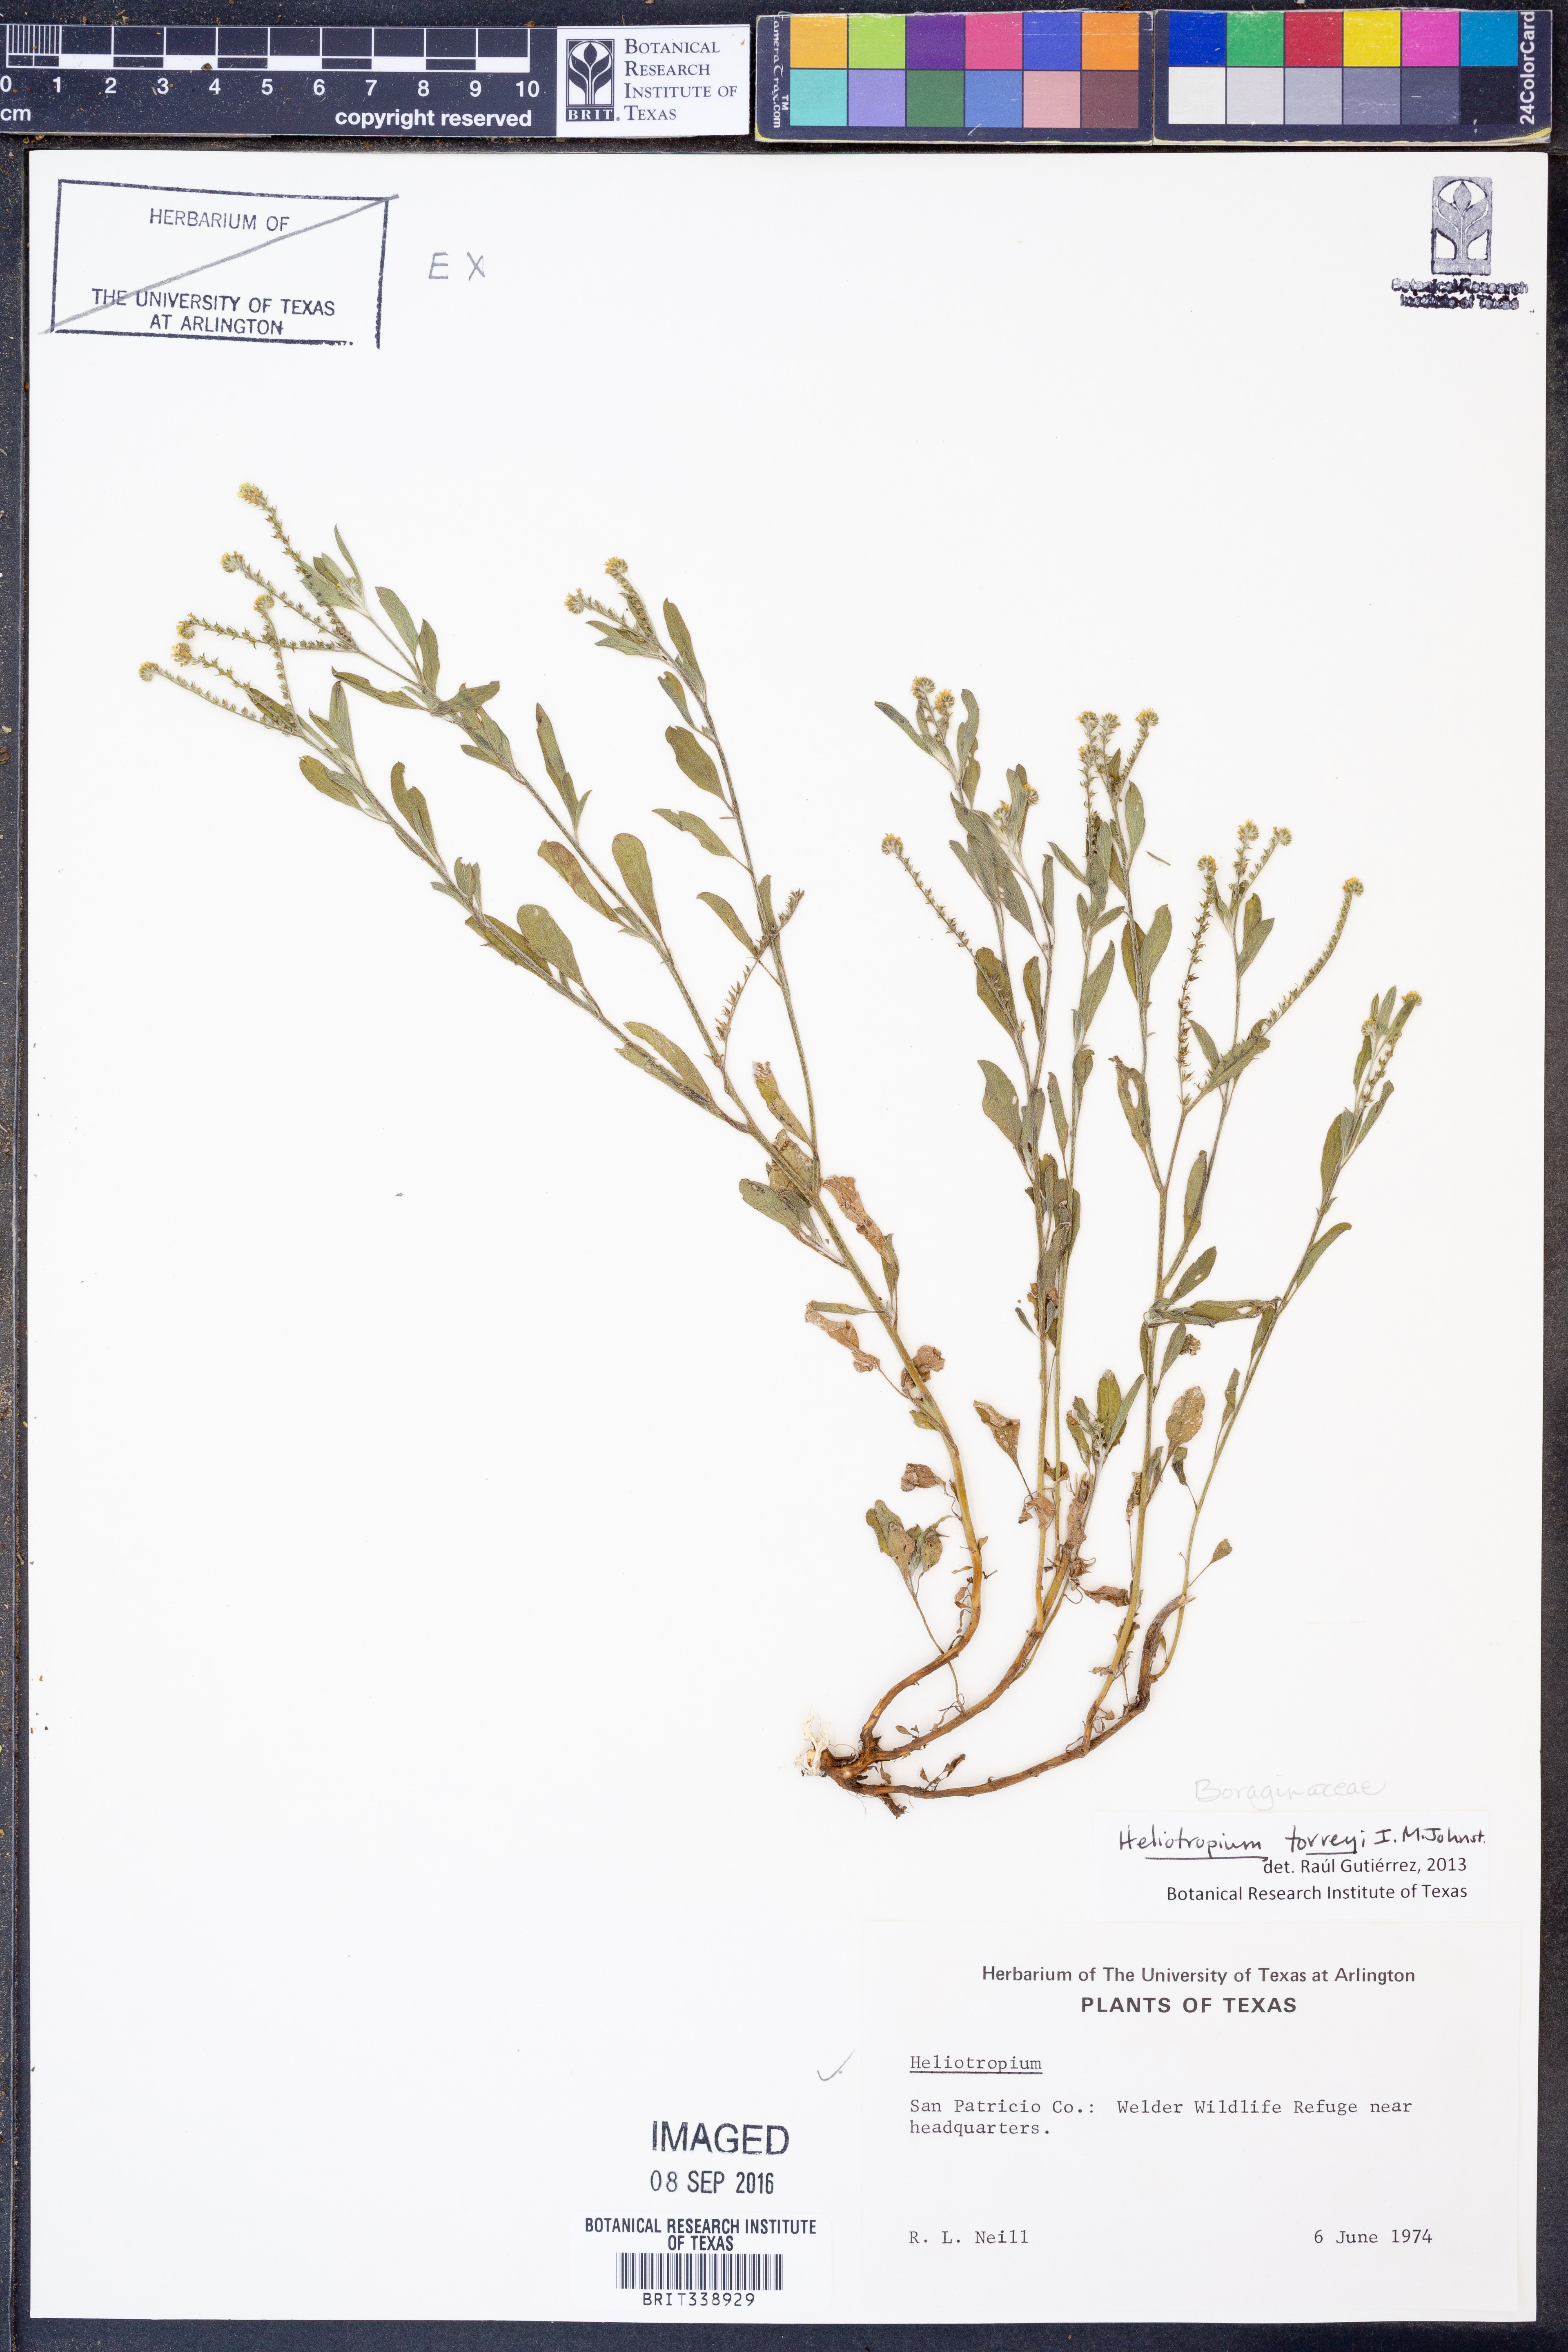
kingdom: Plantae
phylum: Tracheophyta
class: Magnoliopsida
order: Boraginales
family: Heliotropiaceae
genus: Euploca
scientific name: Euploca torreyi
